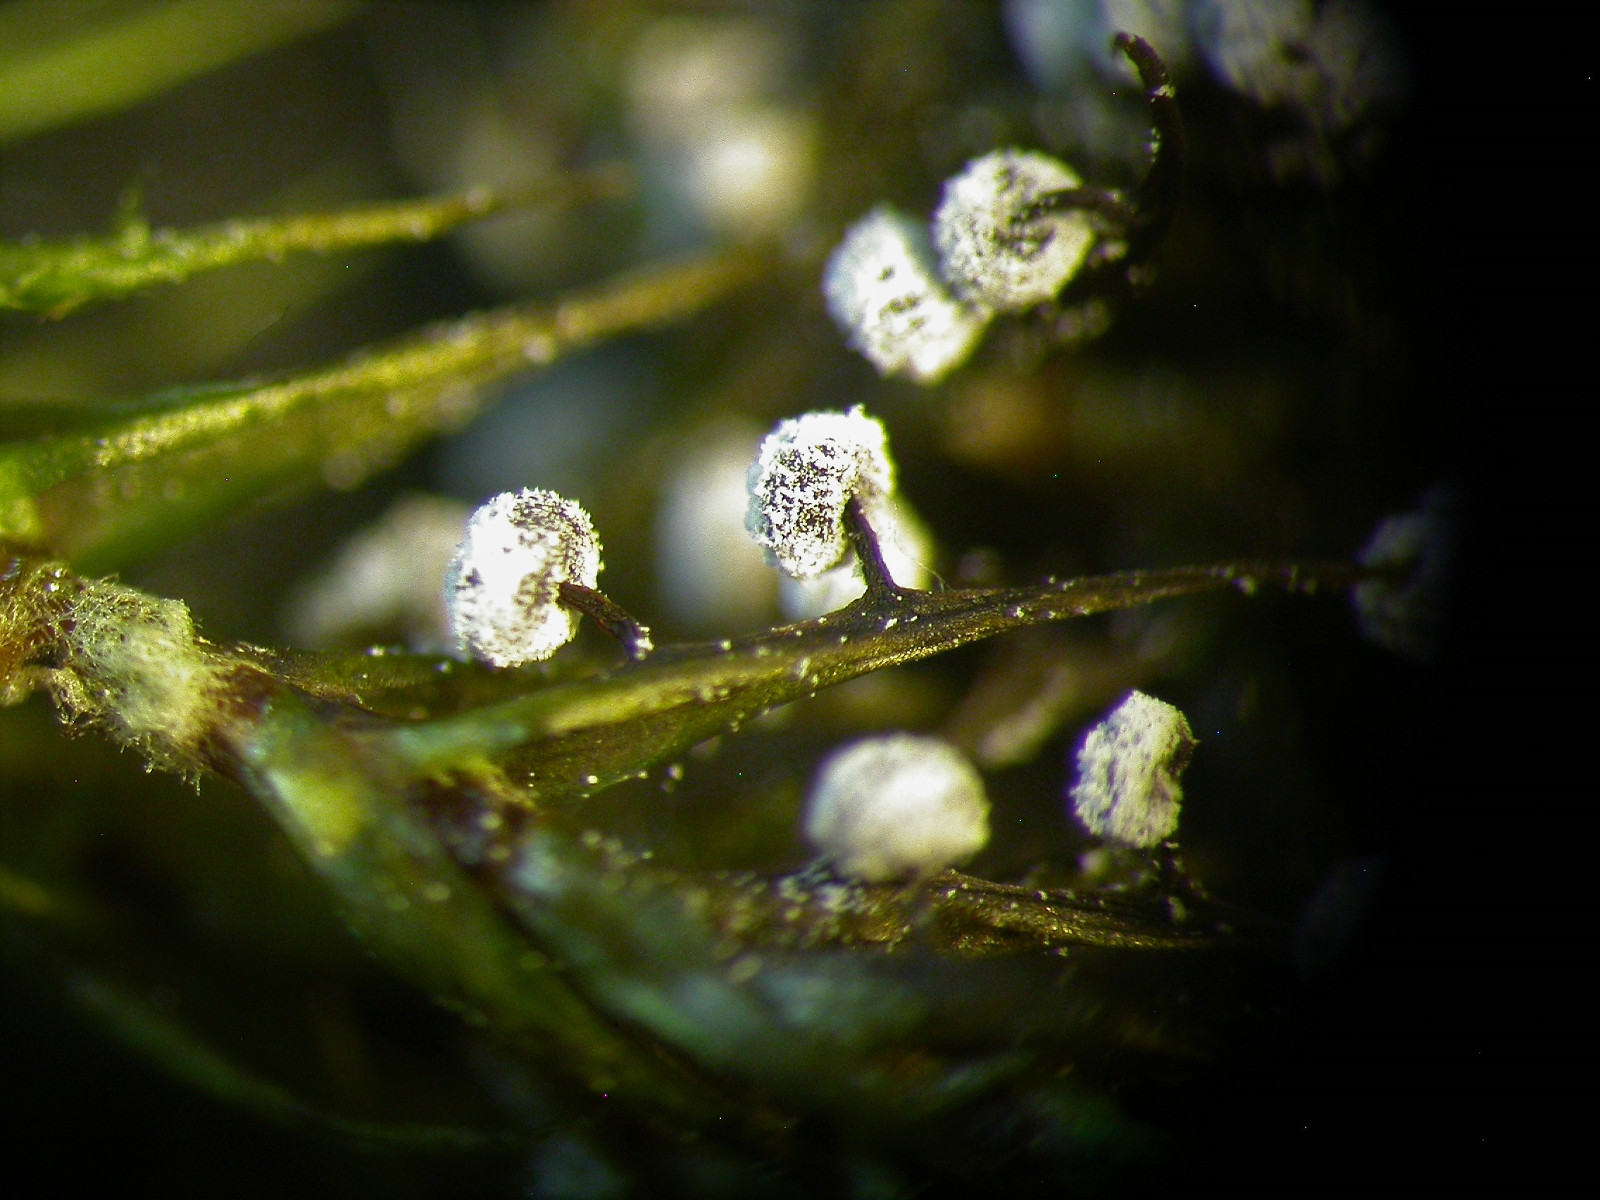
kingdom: Protozoa
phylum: Mycetozoa
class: Myxomycetes
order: Physarales
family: Didymiaceae
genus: Didymium
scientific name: Didymium melanospermum
